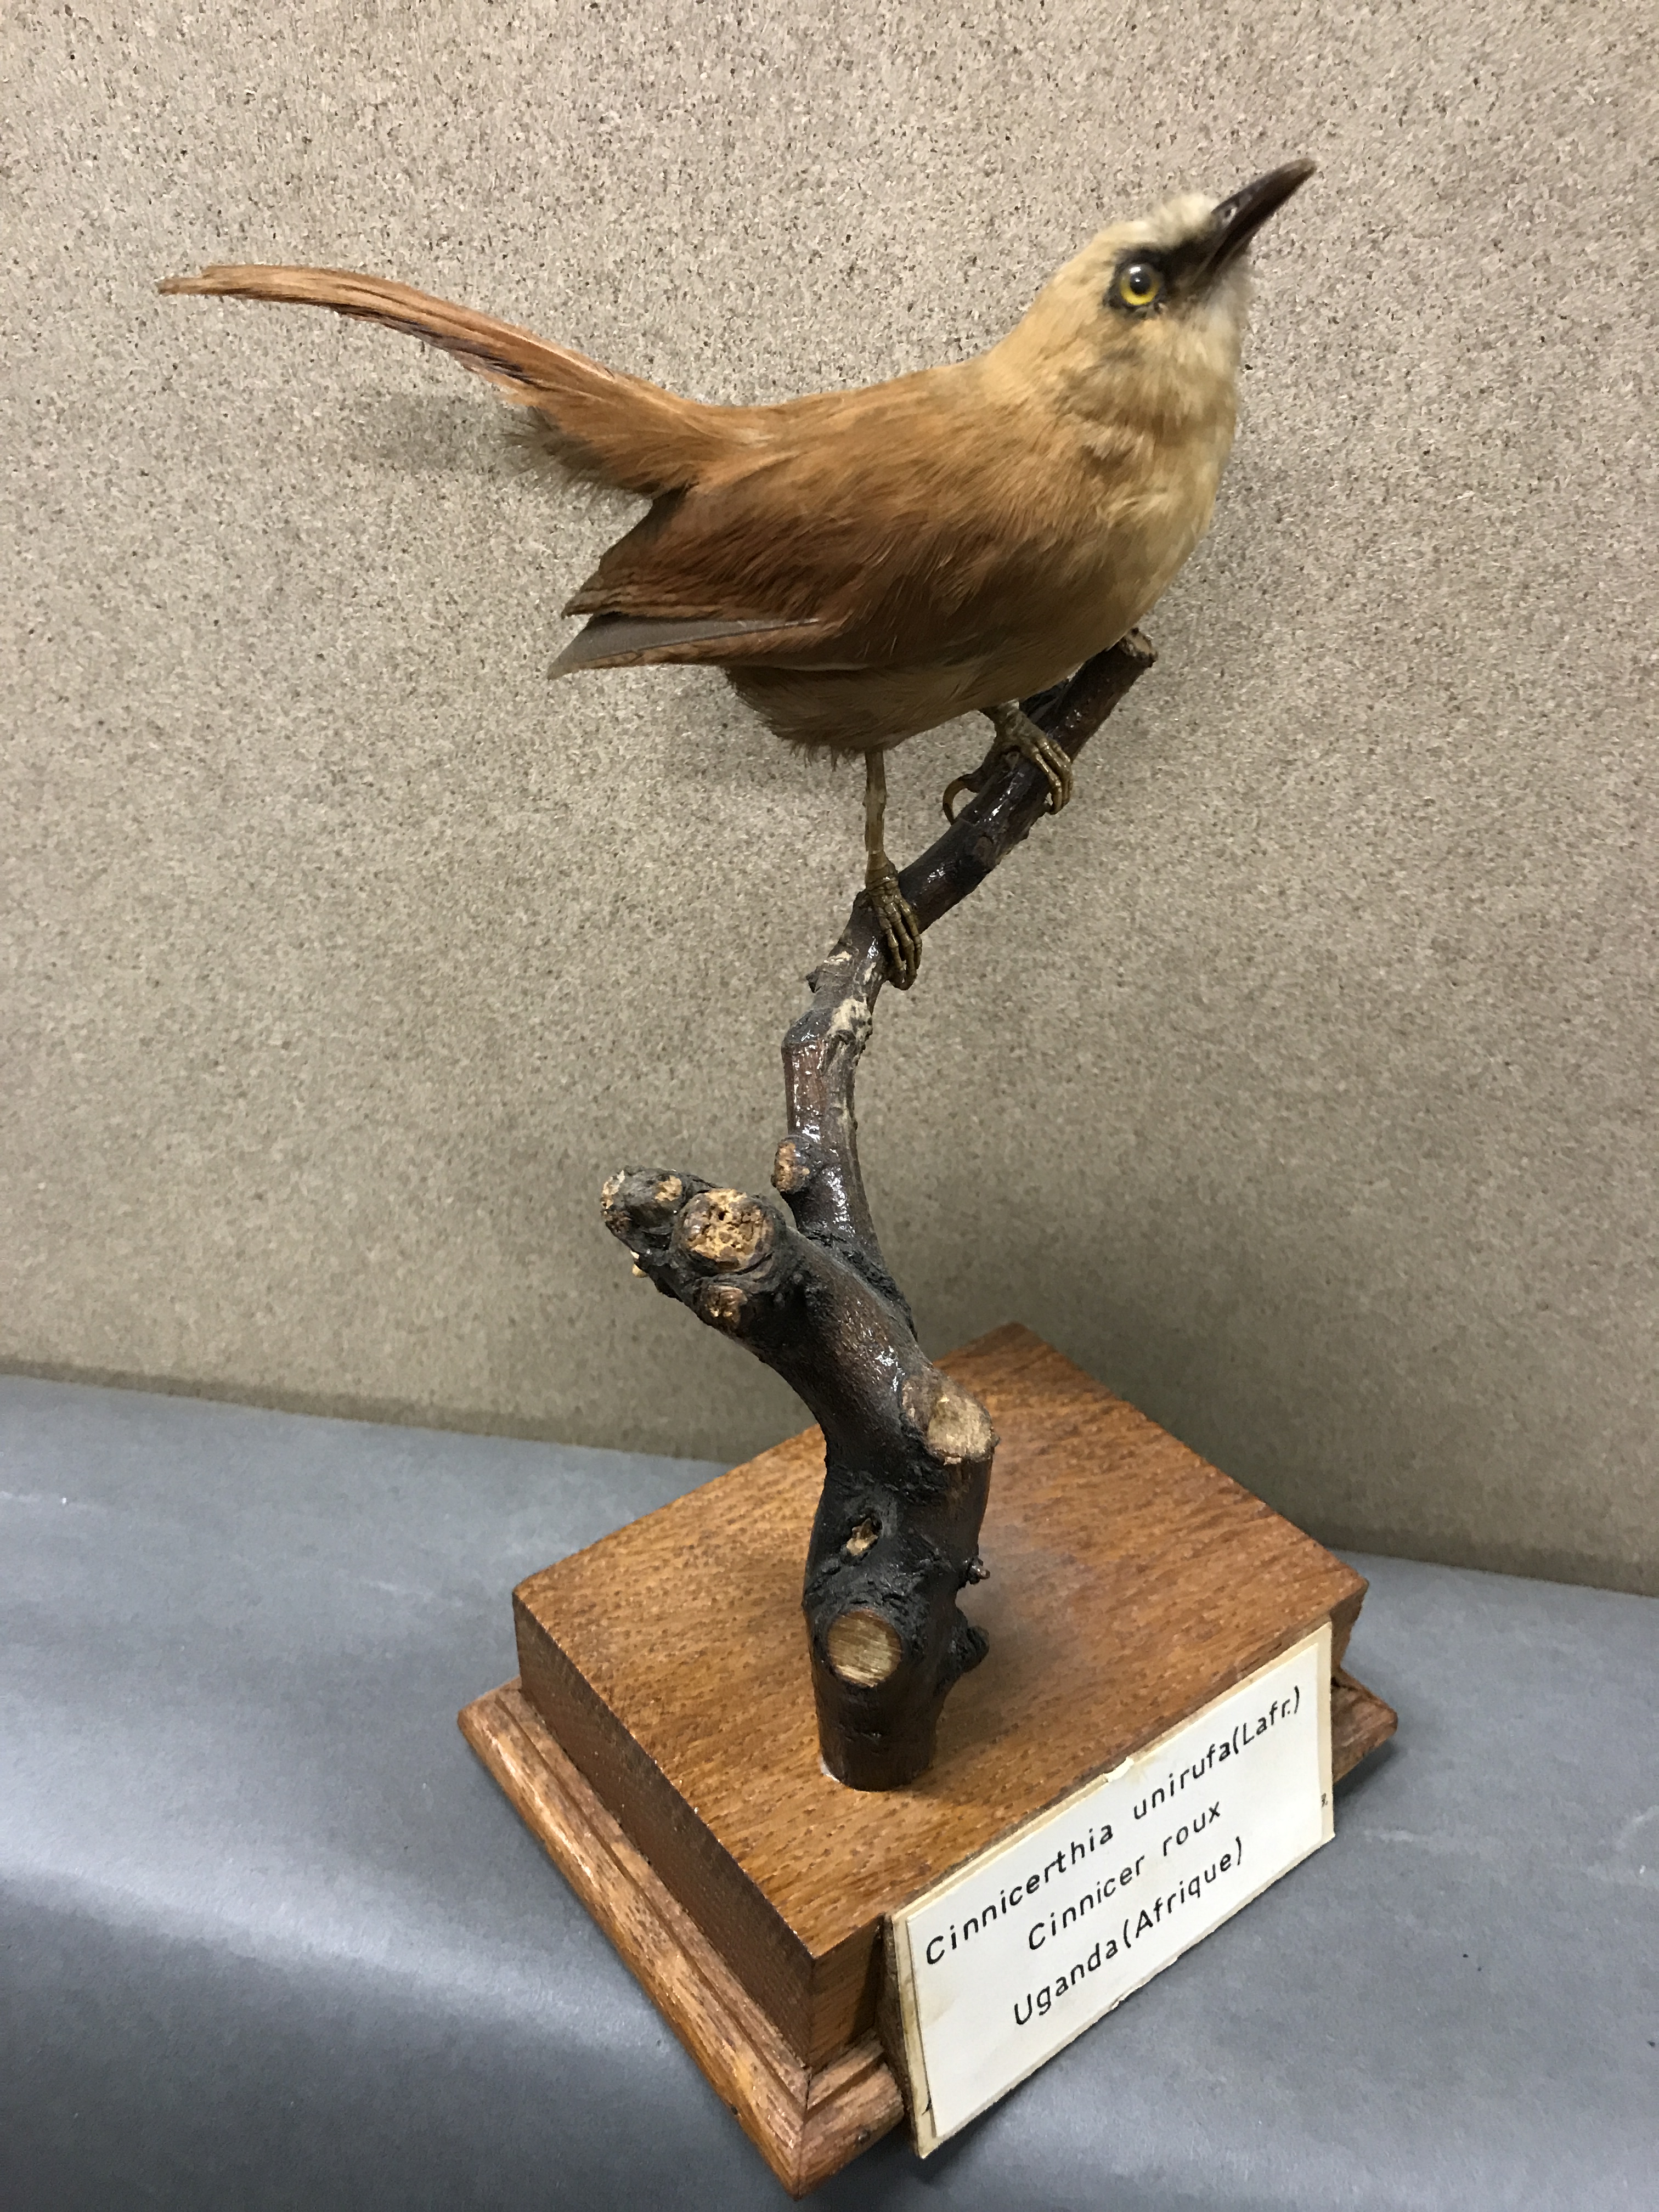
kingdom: Animalia
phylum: Chordata
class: Aves
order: Passeriformes
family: Troglodytidae
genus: Cinnycerthia
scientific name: Cinnycerthia unirufa
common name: Rufous wren
